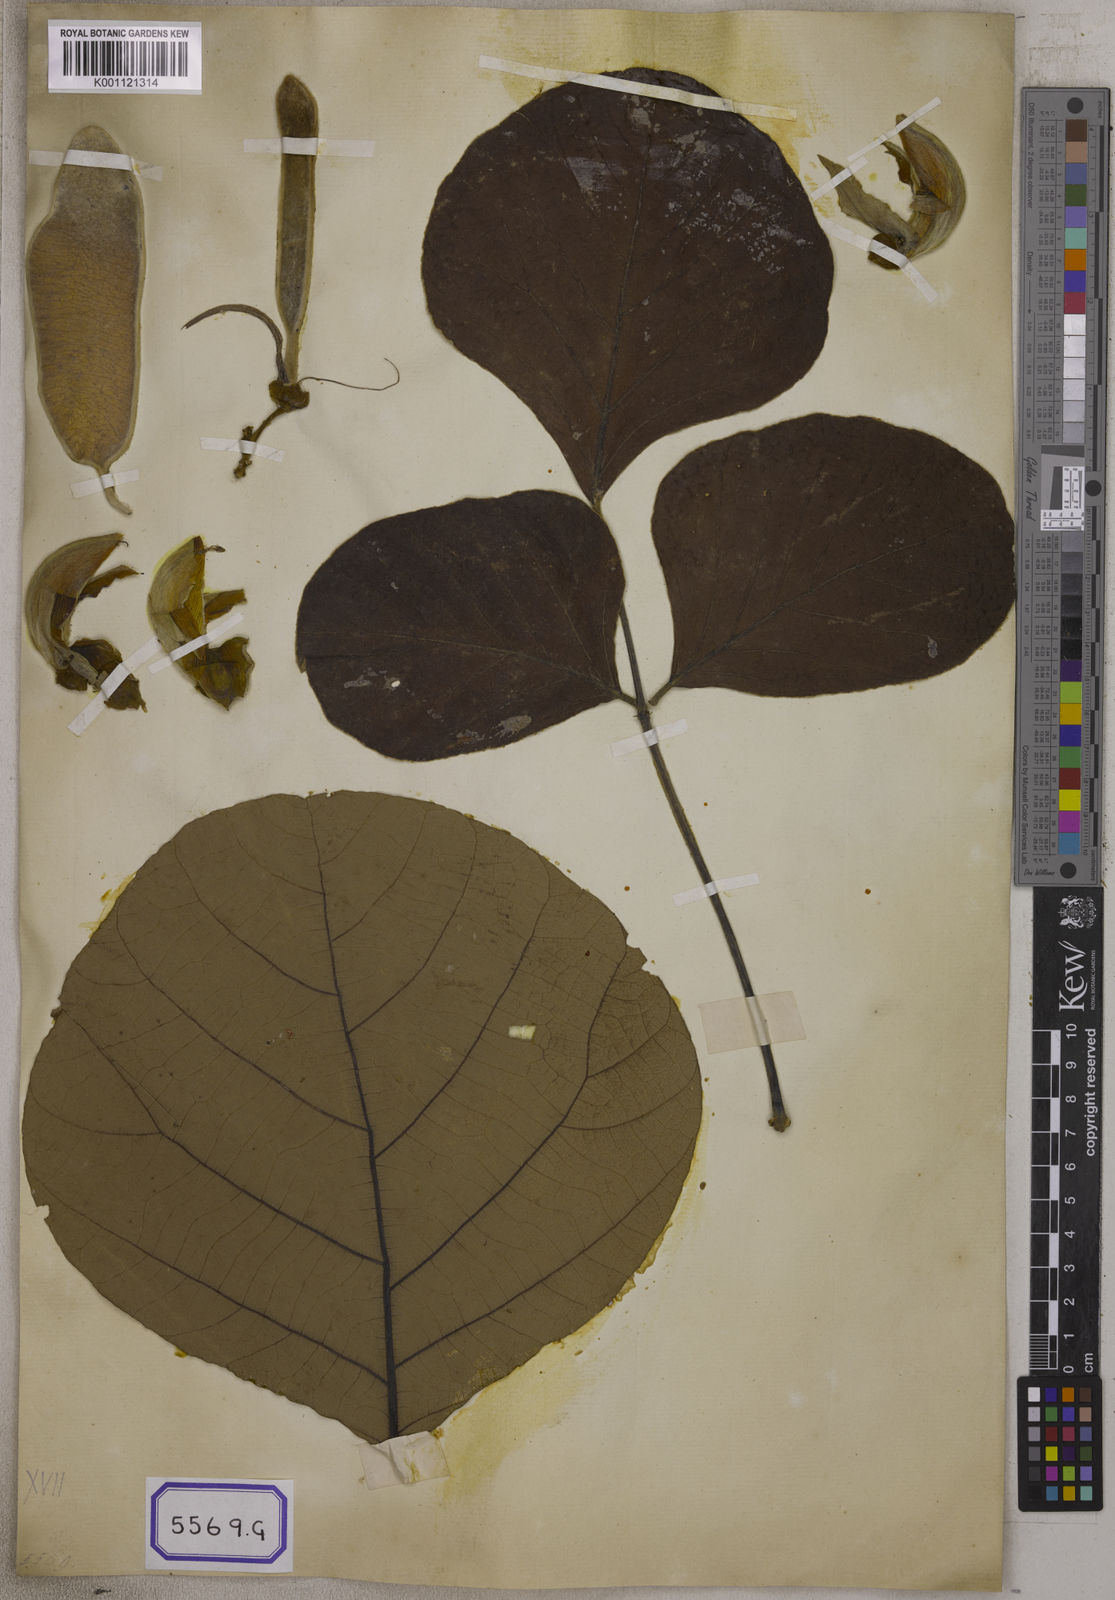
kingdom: Plantae
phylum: Tracheophyta
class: Magnoliopsida
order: Fabales
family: Fabaceae
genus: Butea
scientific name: Butea
